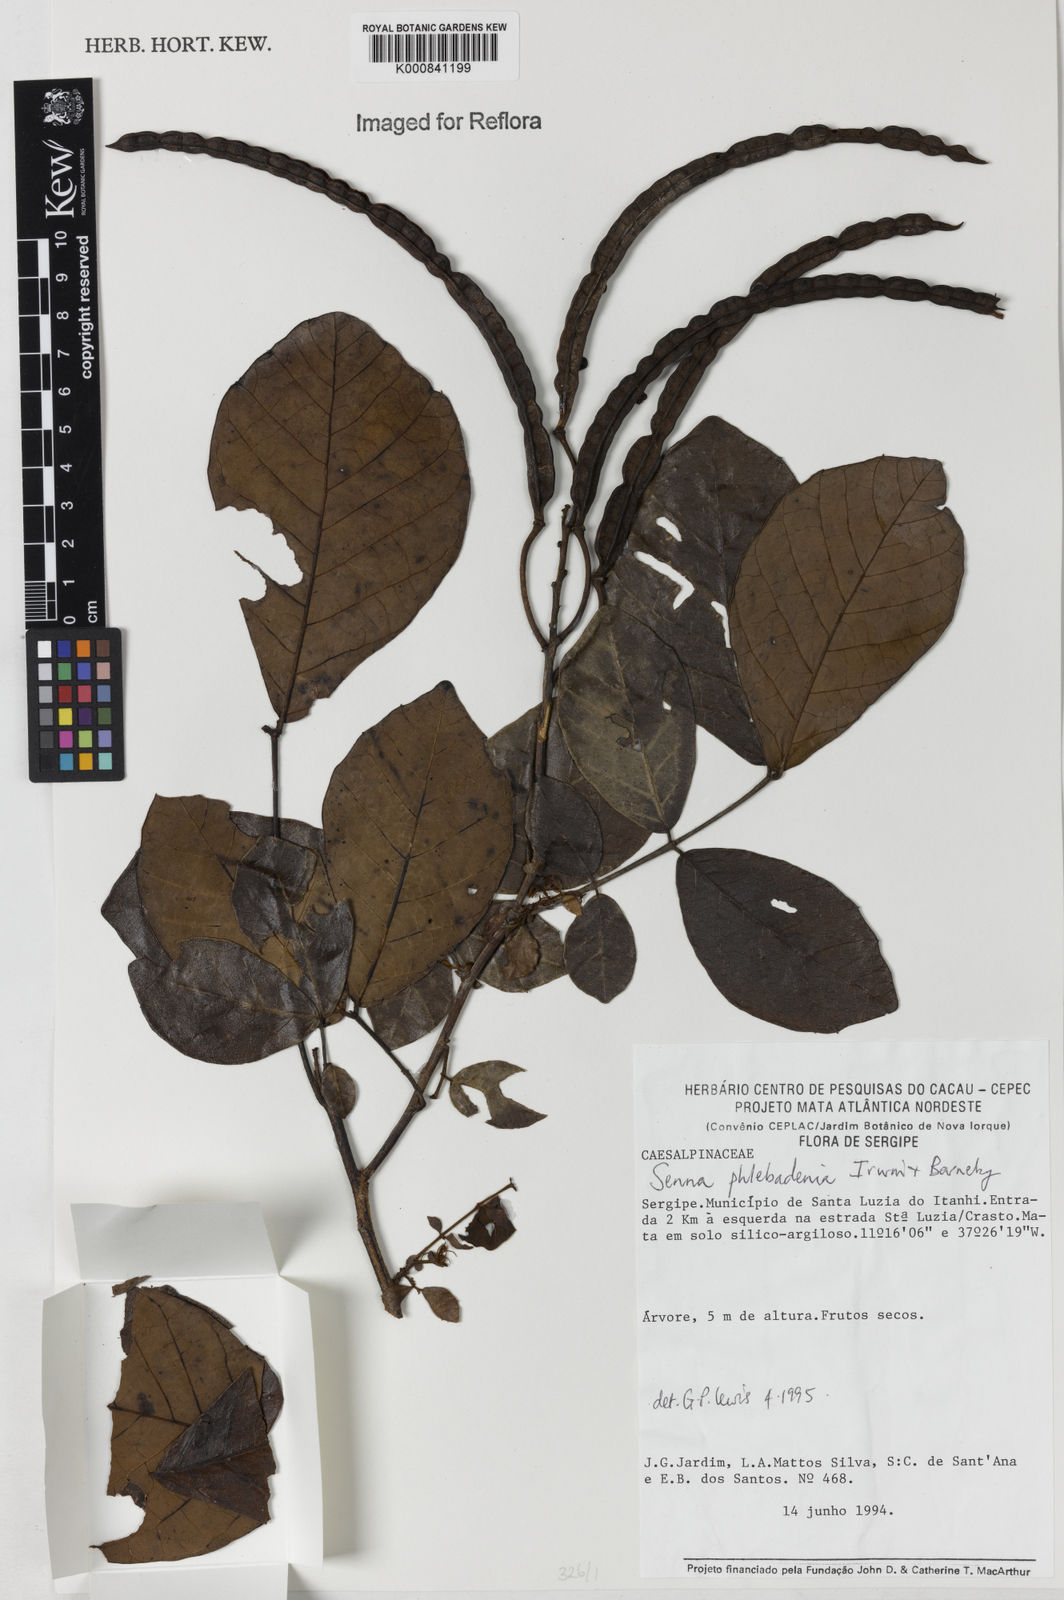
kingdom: Plantae
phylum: Tracheophyta
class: Magnoliopsida
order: Fabales
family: Fabaceae
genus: Senna
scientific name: Senna phlebadenia
